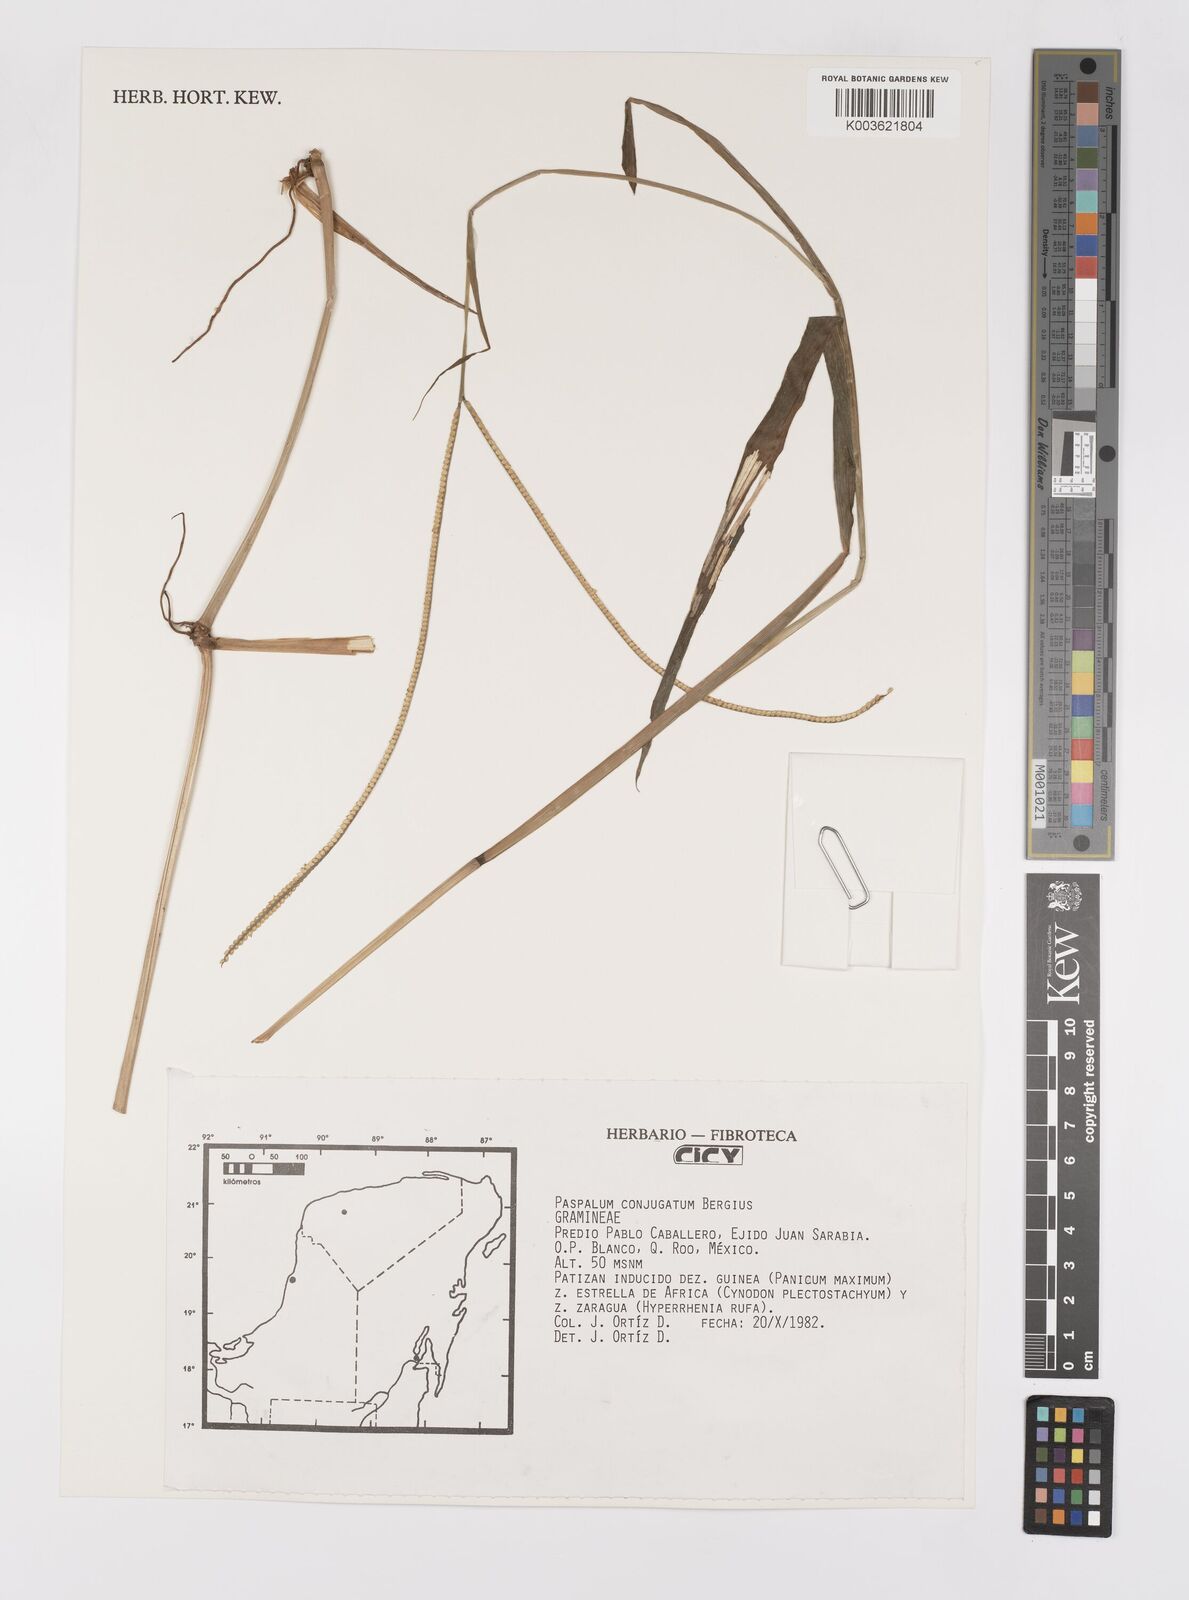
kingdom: Plantae
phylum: Tracheophyta
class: Liliopsida
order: Poales
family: Poaceae
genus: Paspalum
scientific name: Paspalum conjugatum
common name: Hilograss
